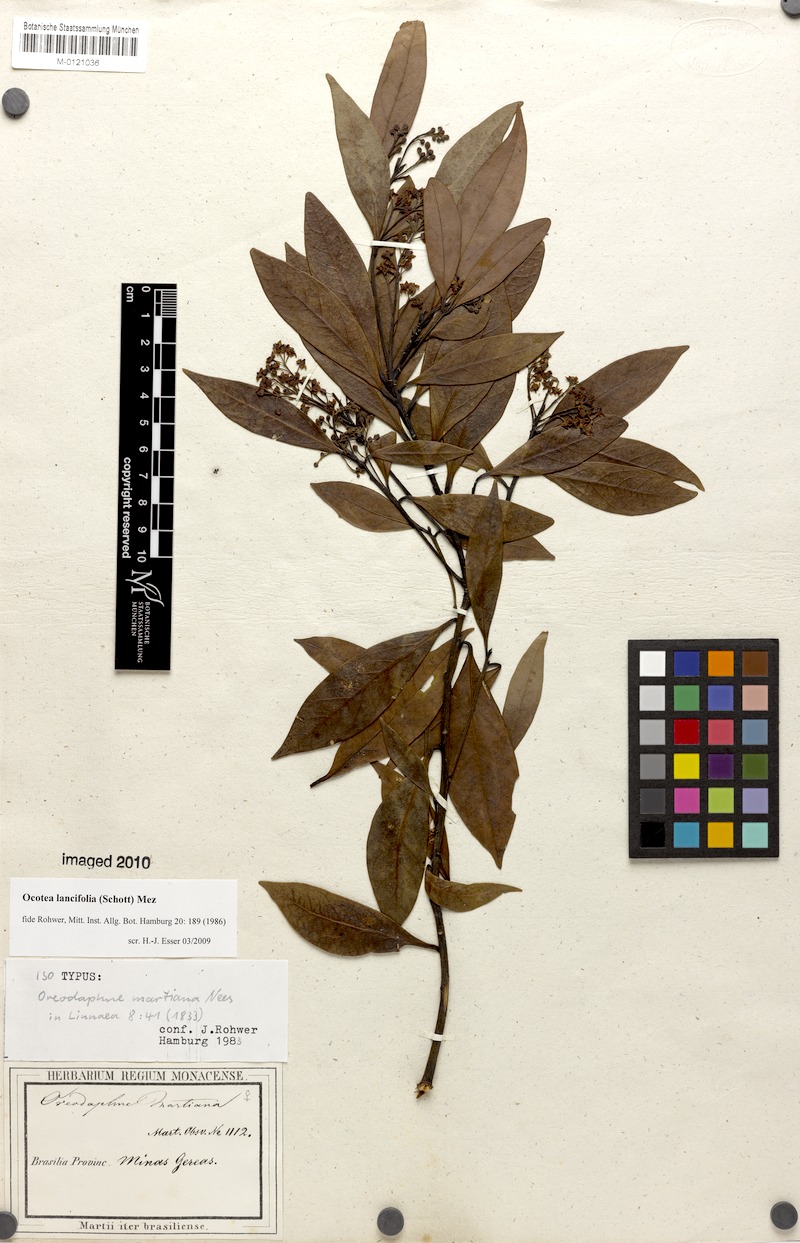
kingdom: Plantae
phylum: Tracheophyta
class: Magnoliopsida
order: Laurales
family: Lauraceae
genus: Ocotea
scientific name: Ocotea lancifolia
